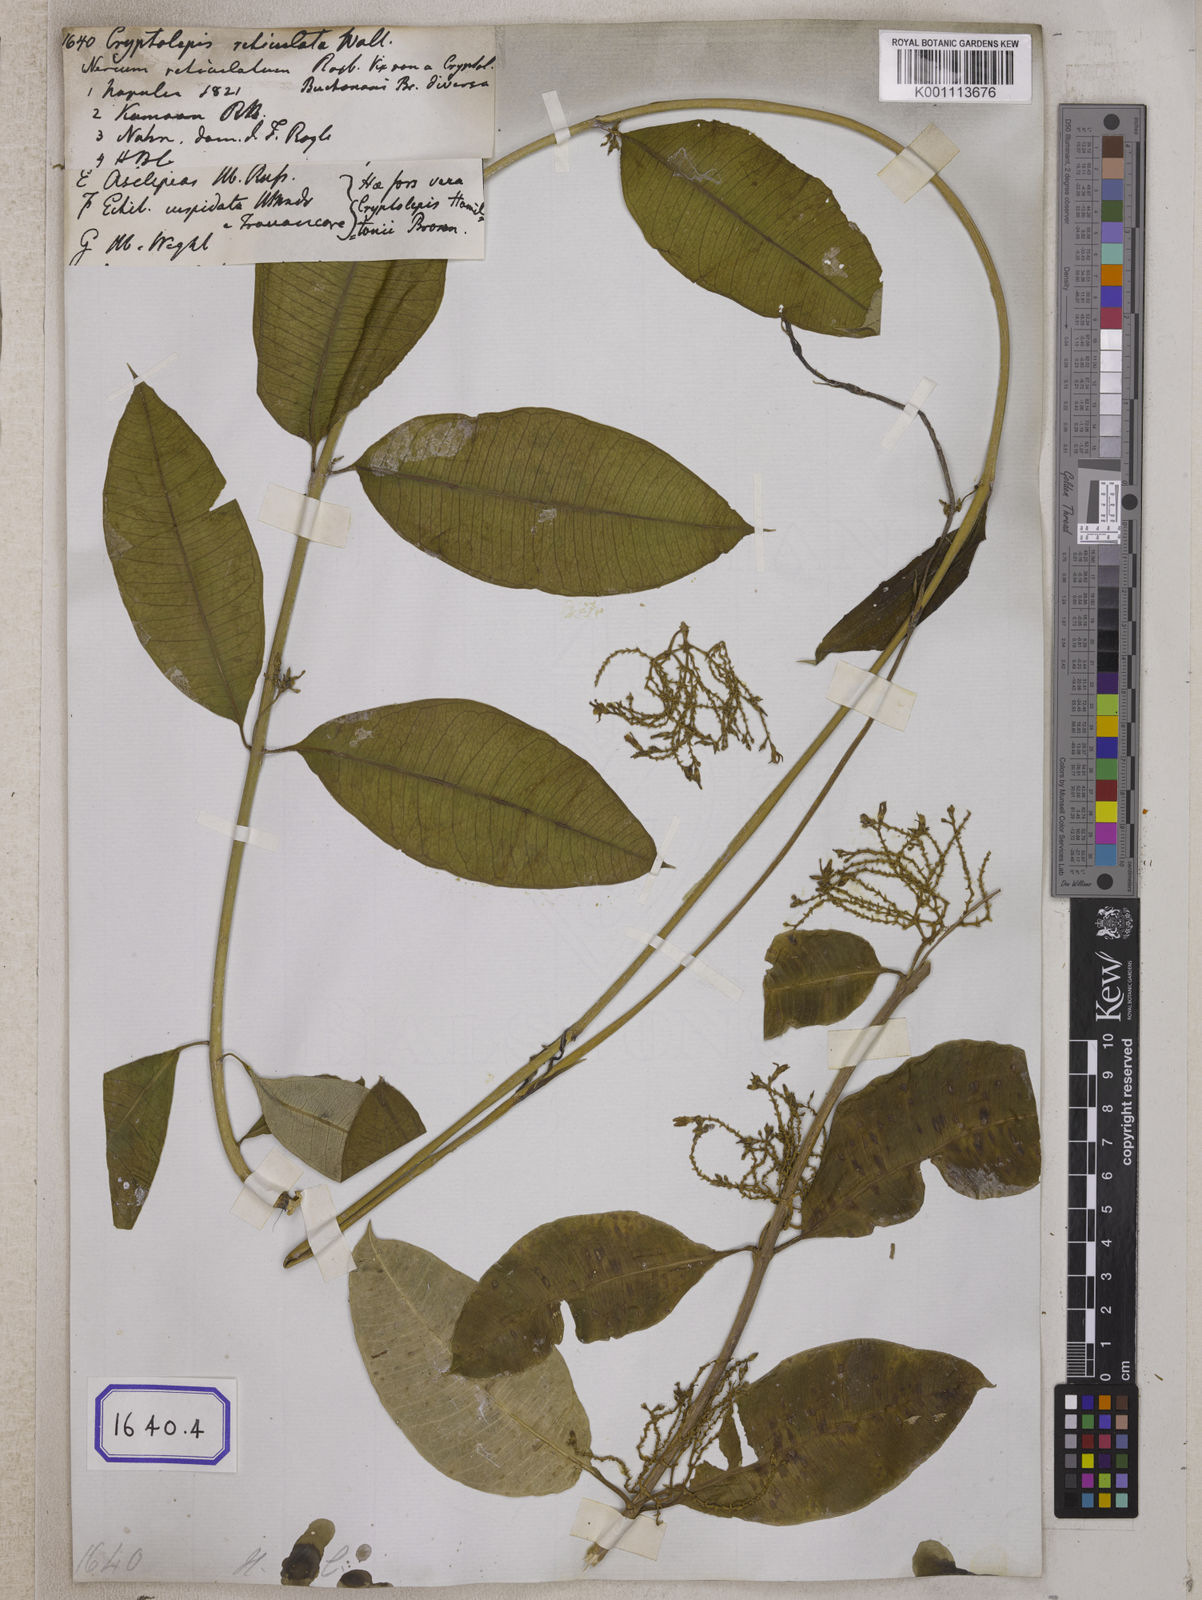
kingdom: Plantae
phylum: Tracheophyta
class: Magnoliopsida
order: Gentianales
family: Apocynaceae
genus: Cryptolepis
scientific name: Cryptolepis
